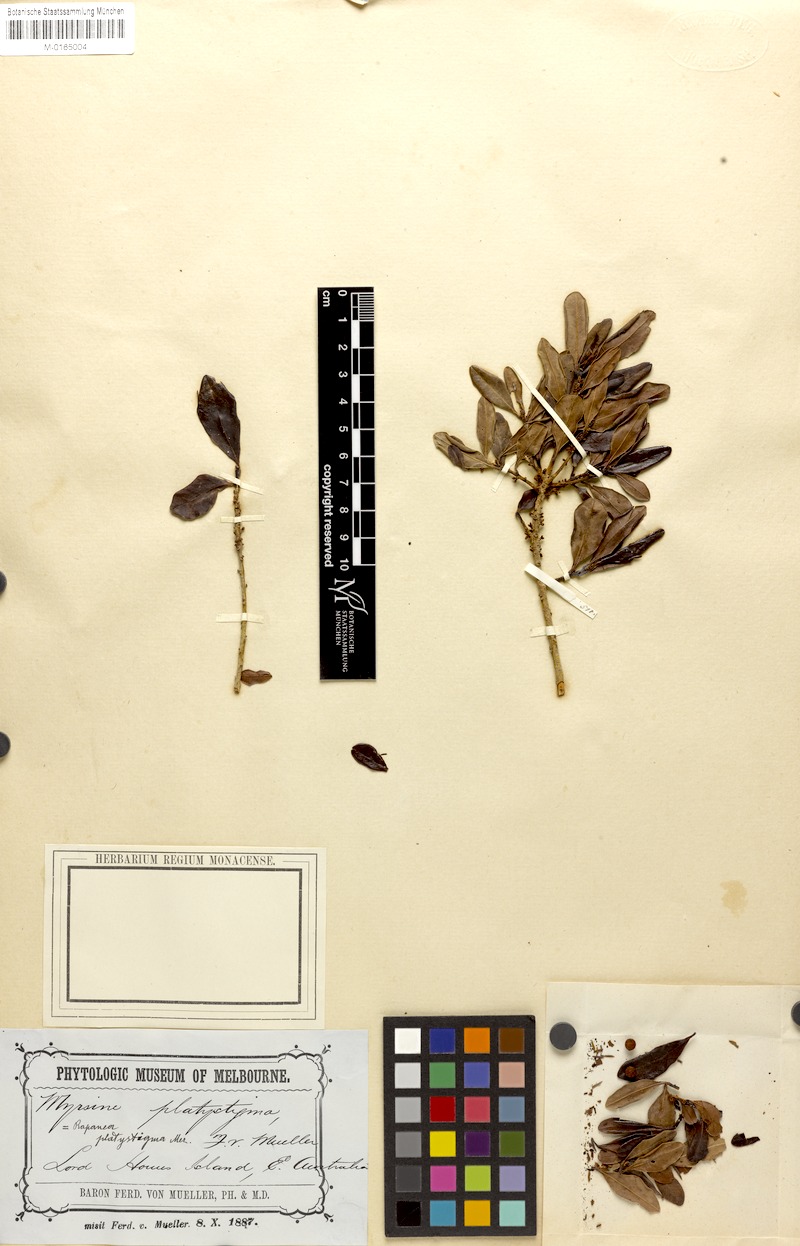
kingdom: Plantae
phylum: Tracheophyta
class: Magnoliopsida
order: Ericales
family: Primulaceae
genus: Myrsine
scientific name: Myrsine platystigma
